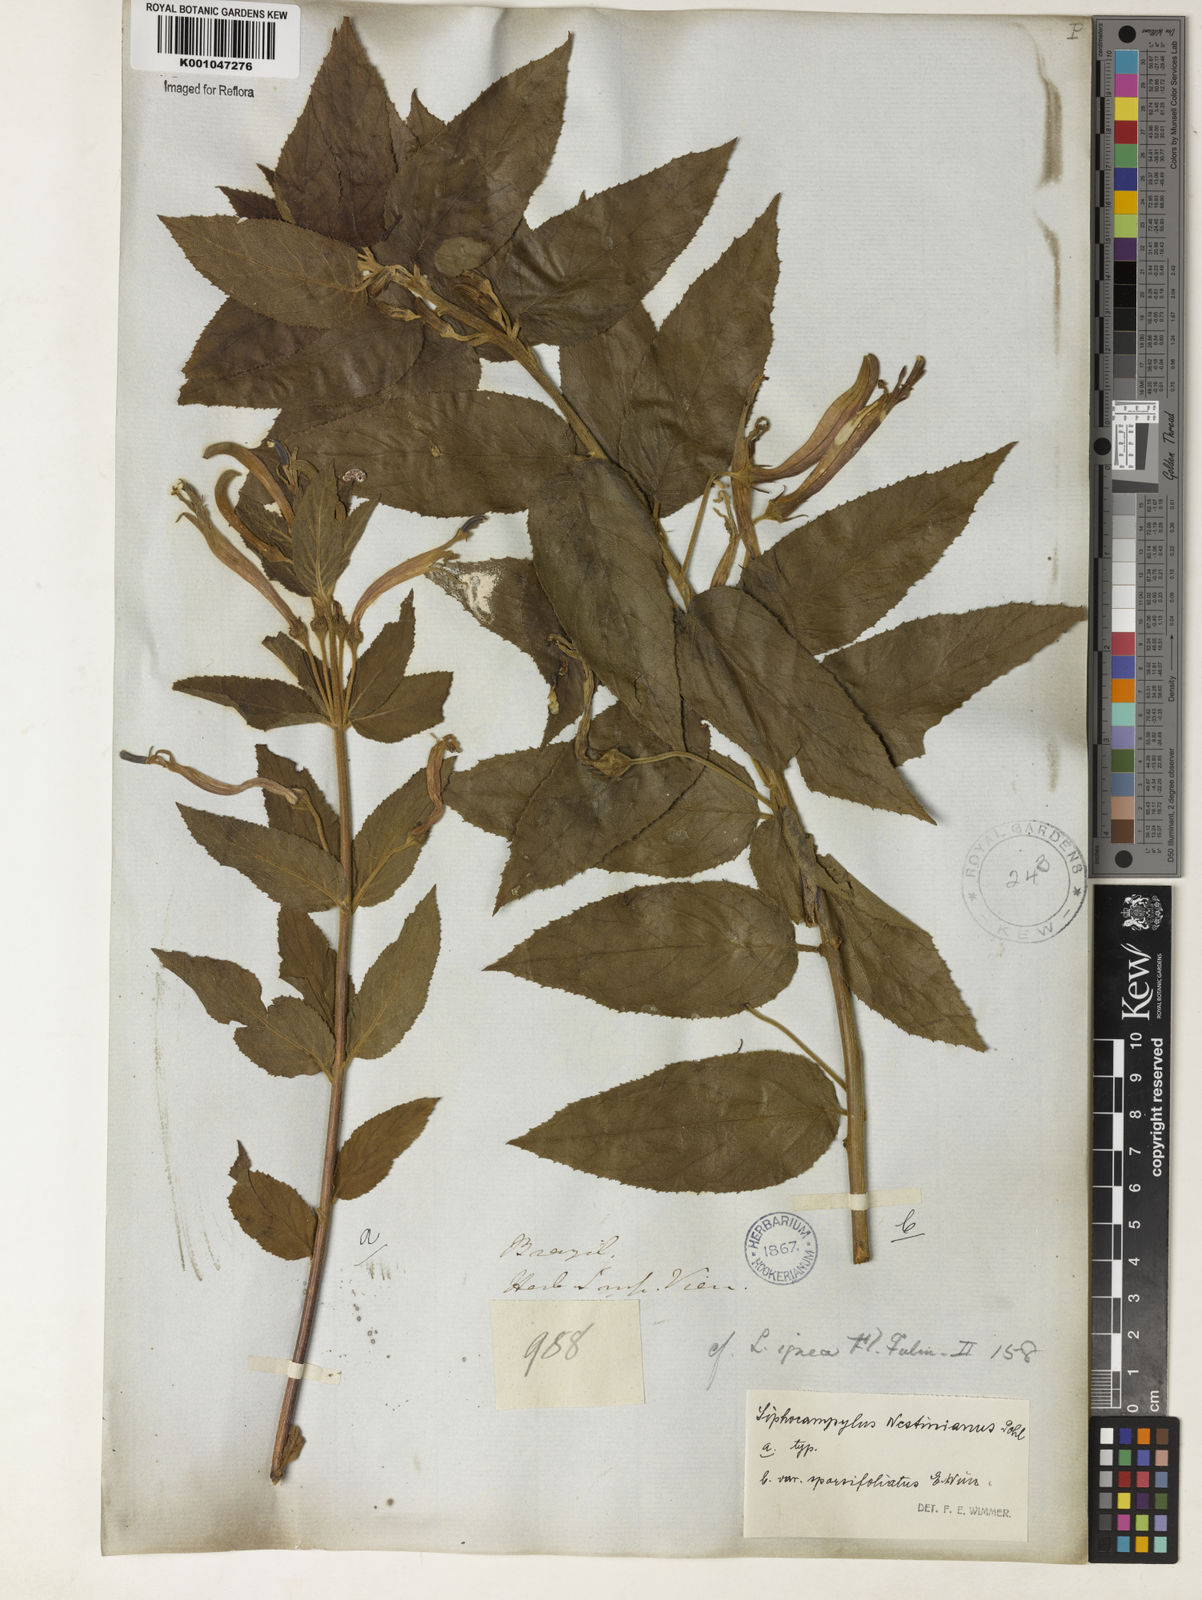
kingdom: Plantae
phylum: Tracheophyta
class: Magnoliopsida
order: Asterales
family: Campanulaceae
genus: Siphocampylus
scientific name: Siphocampylus westinianus
